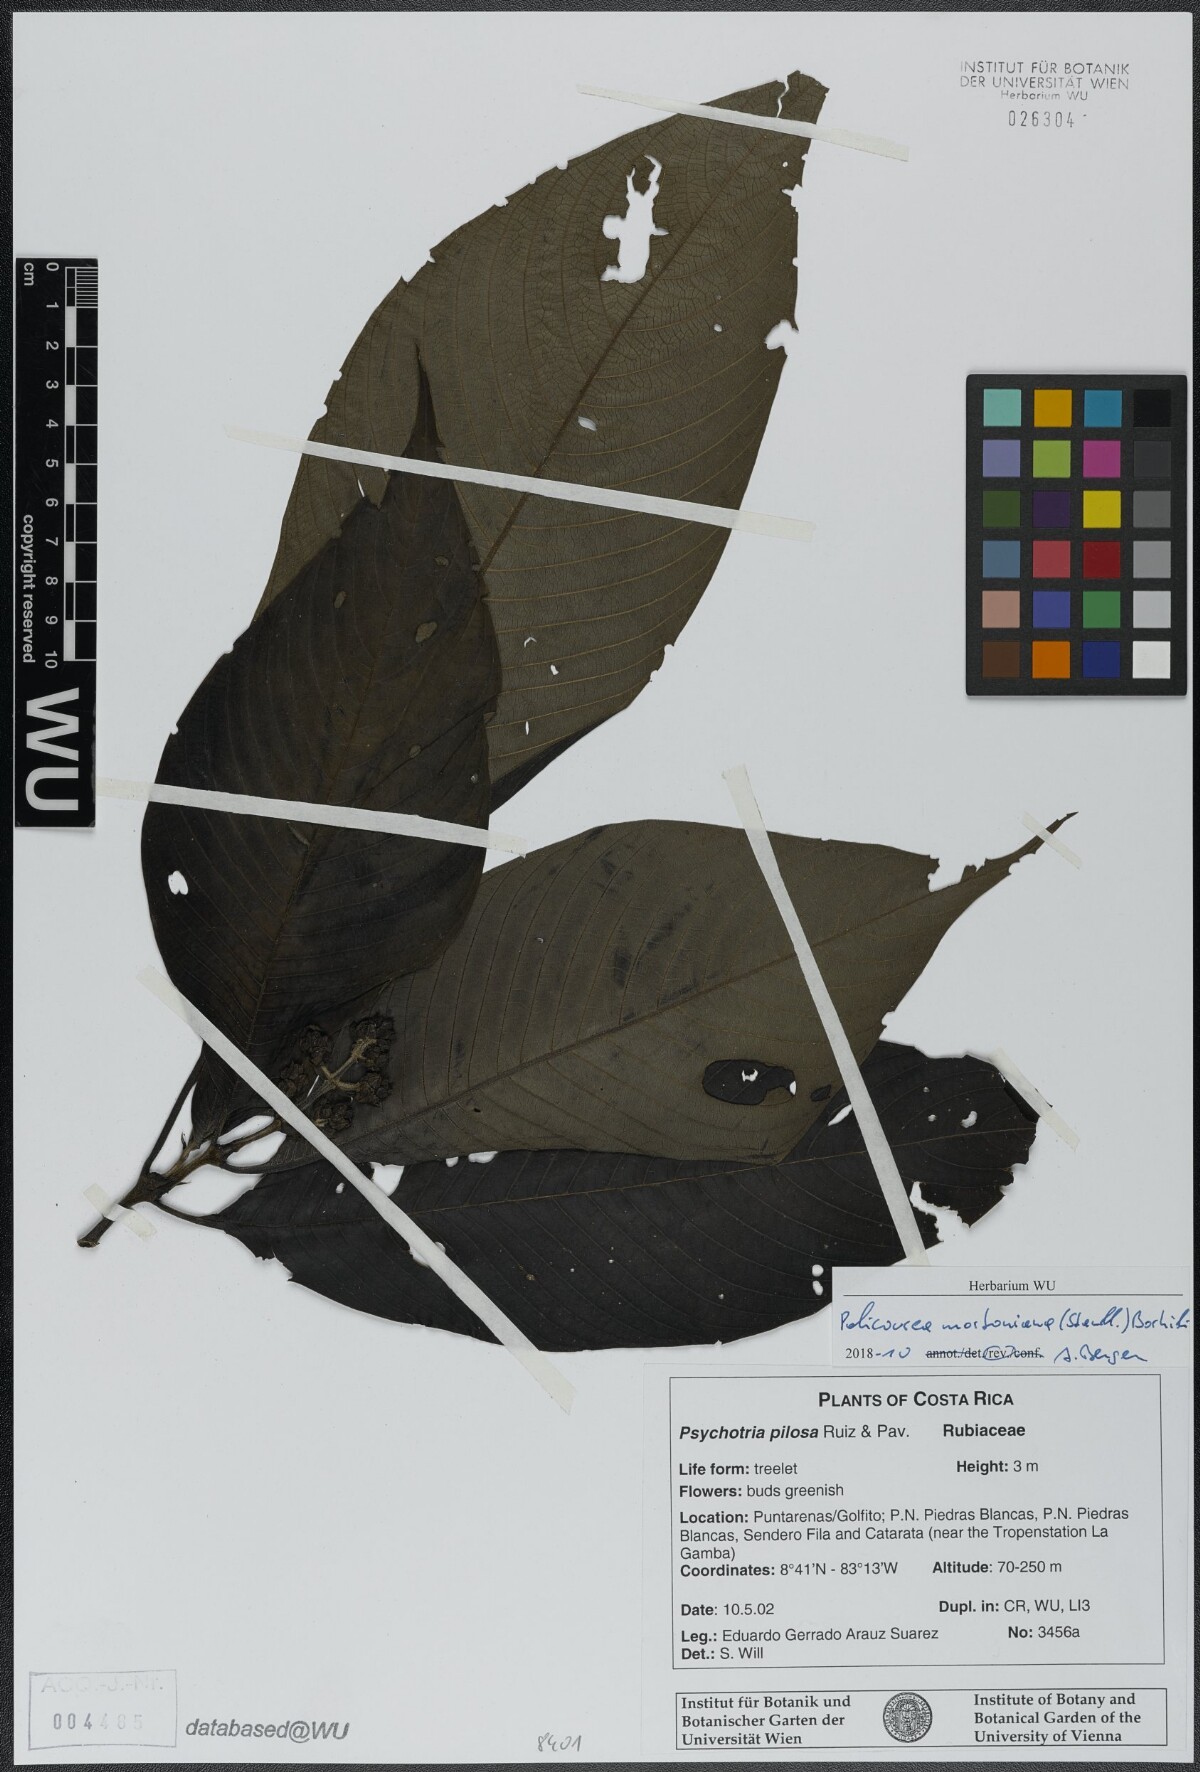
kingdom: Plantae
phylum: Tracheophyta
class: Magnoliopsida
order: Gentianales
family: Rubiaceae
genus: Palicourea
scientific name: Palicourea mortoniana
